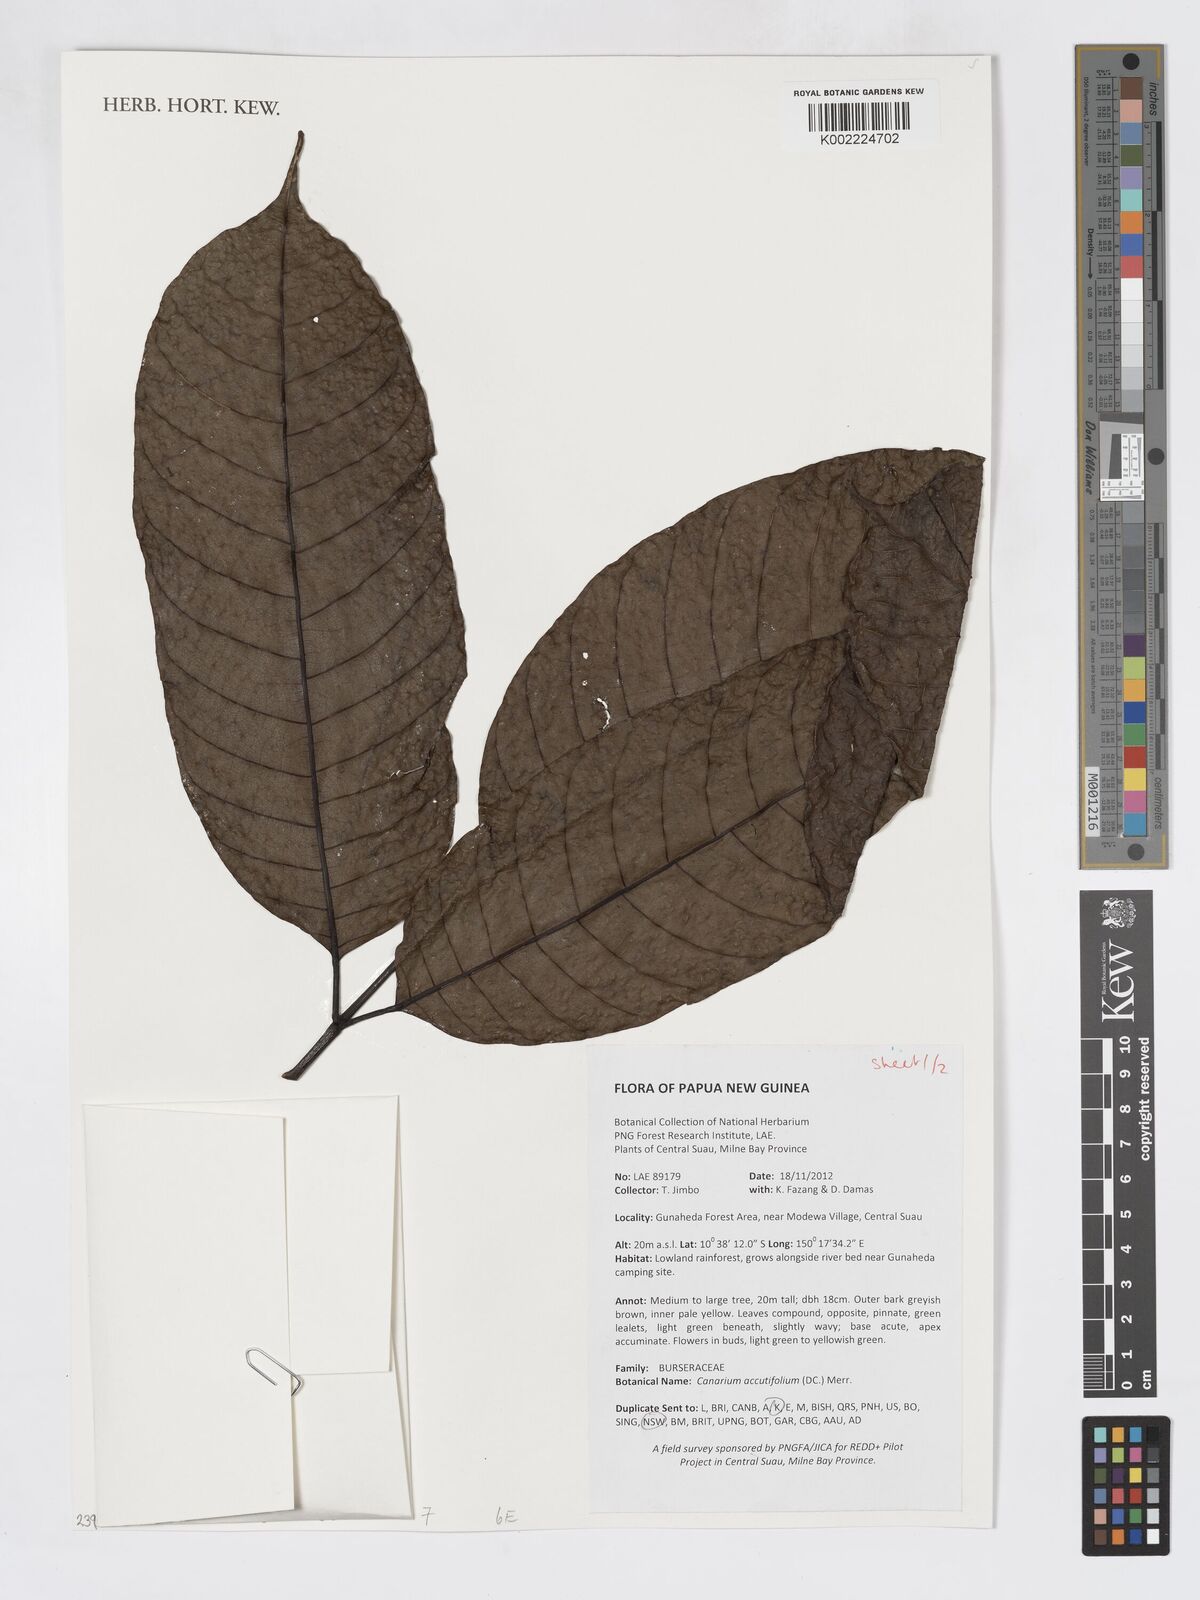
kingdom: Plantae
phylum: Tracheophyta
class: Magnoliopsida
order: Sapindales
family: Burseraceae
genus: Canarium
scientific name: Canarium acutifolium
